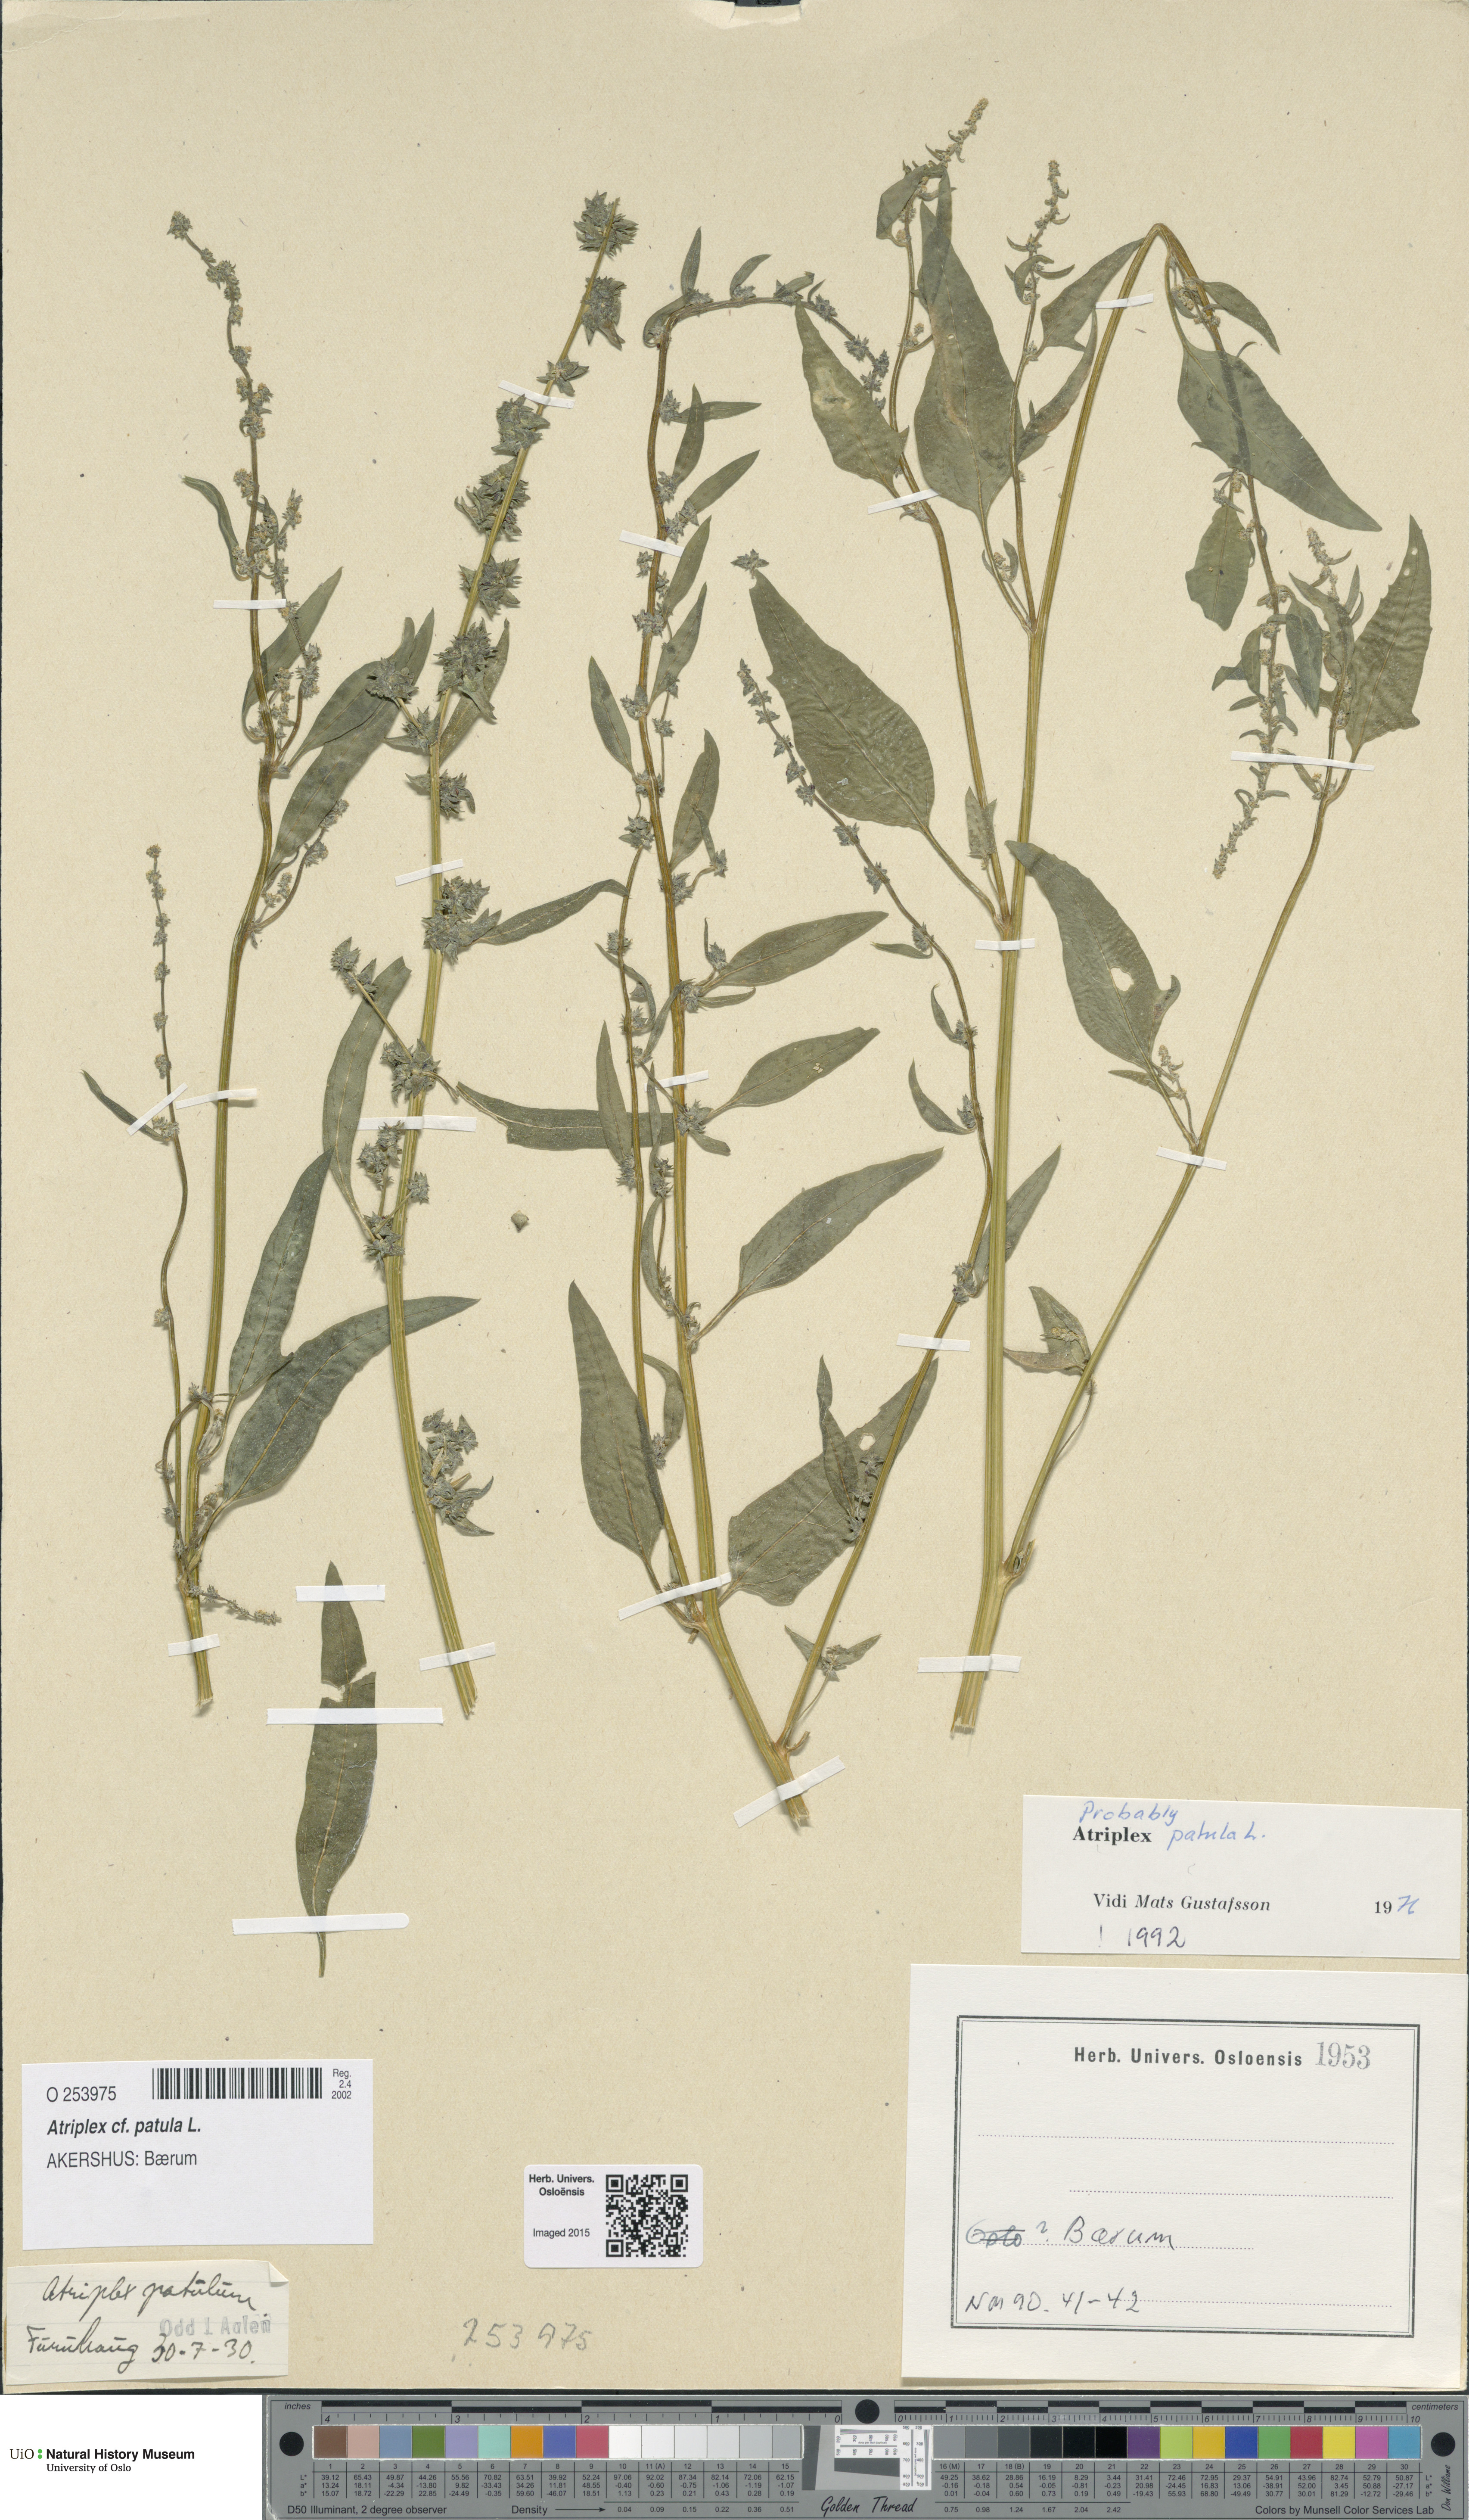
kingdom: Plantae
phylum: Tracheophyta
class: Magnoliopsida
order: Caryophyllales
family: Amaranthaceae
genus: Atriplex
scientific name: Atriplex patula
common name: Common orache
